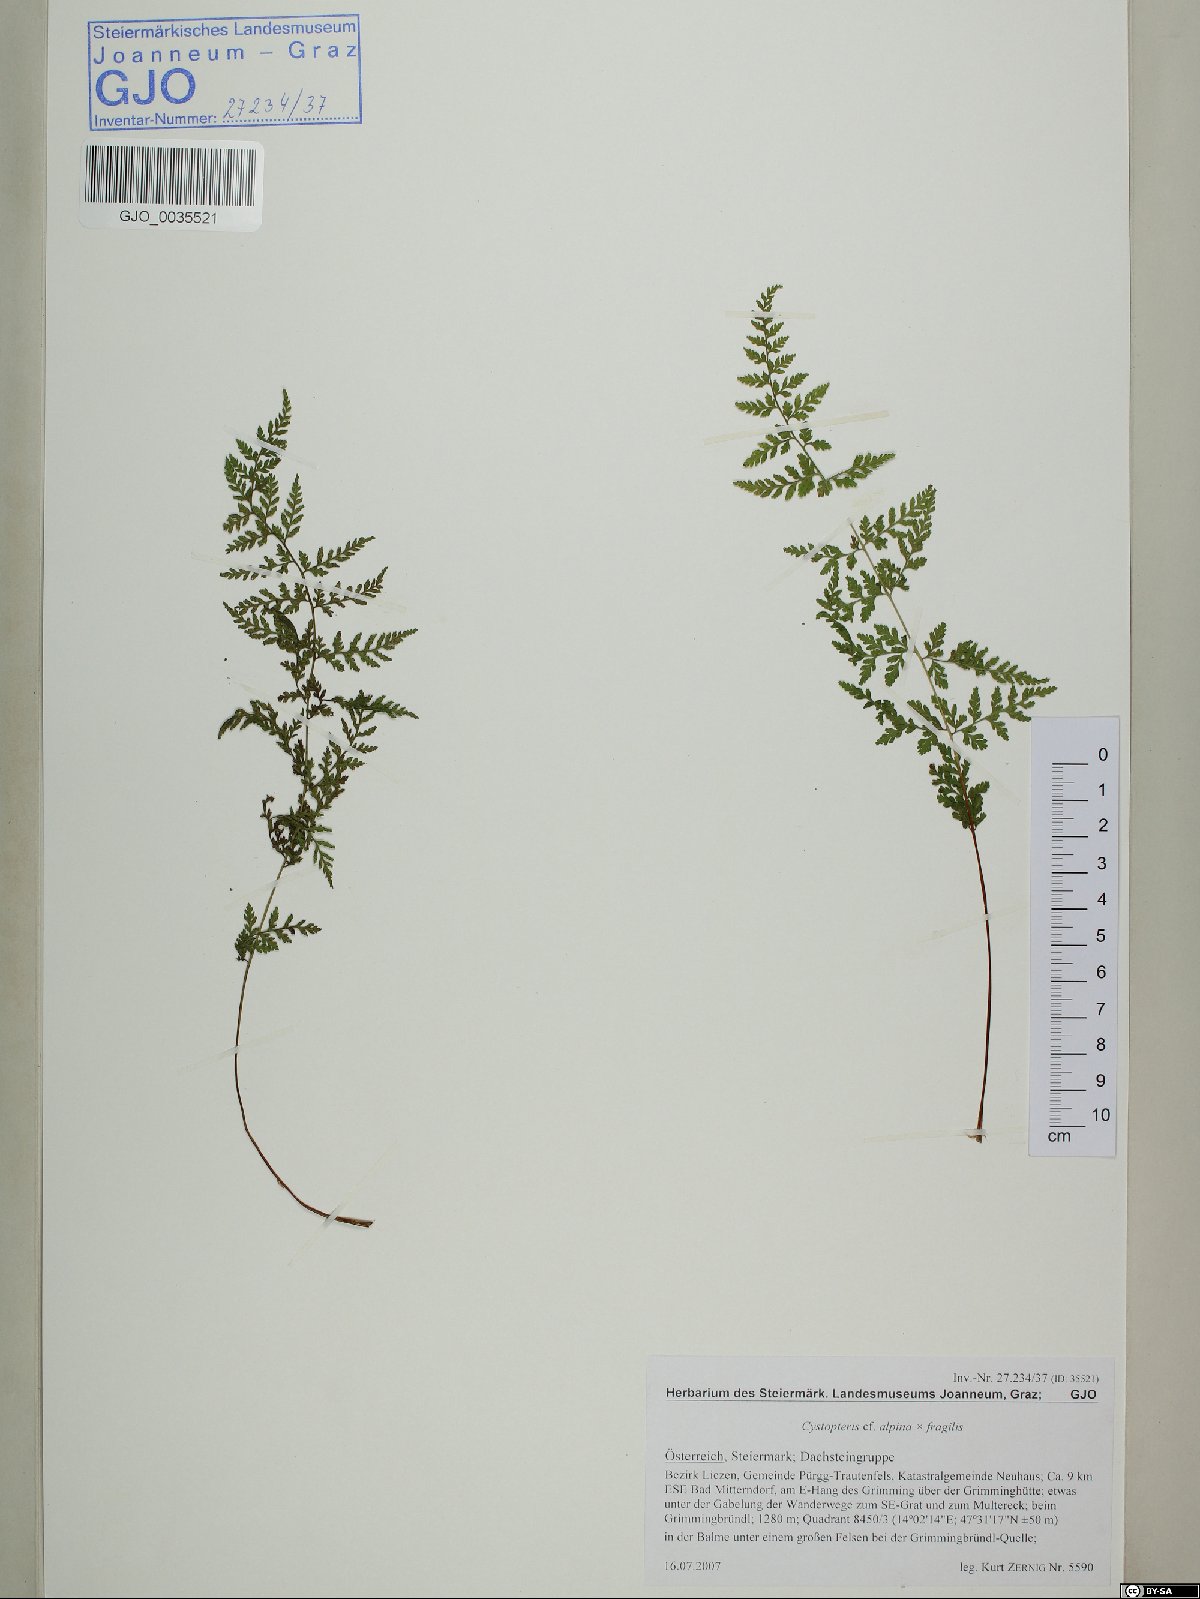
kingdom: Plantae
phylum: Tracheophyta
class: Polypodiopsida
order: Polypodiales
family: Woodsiaceae
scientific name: Woodsiaceae
